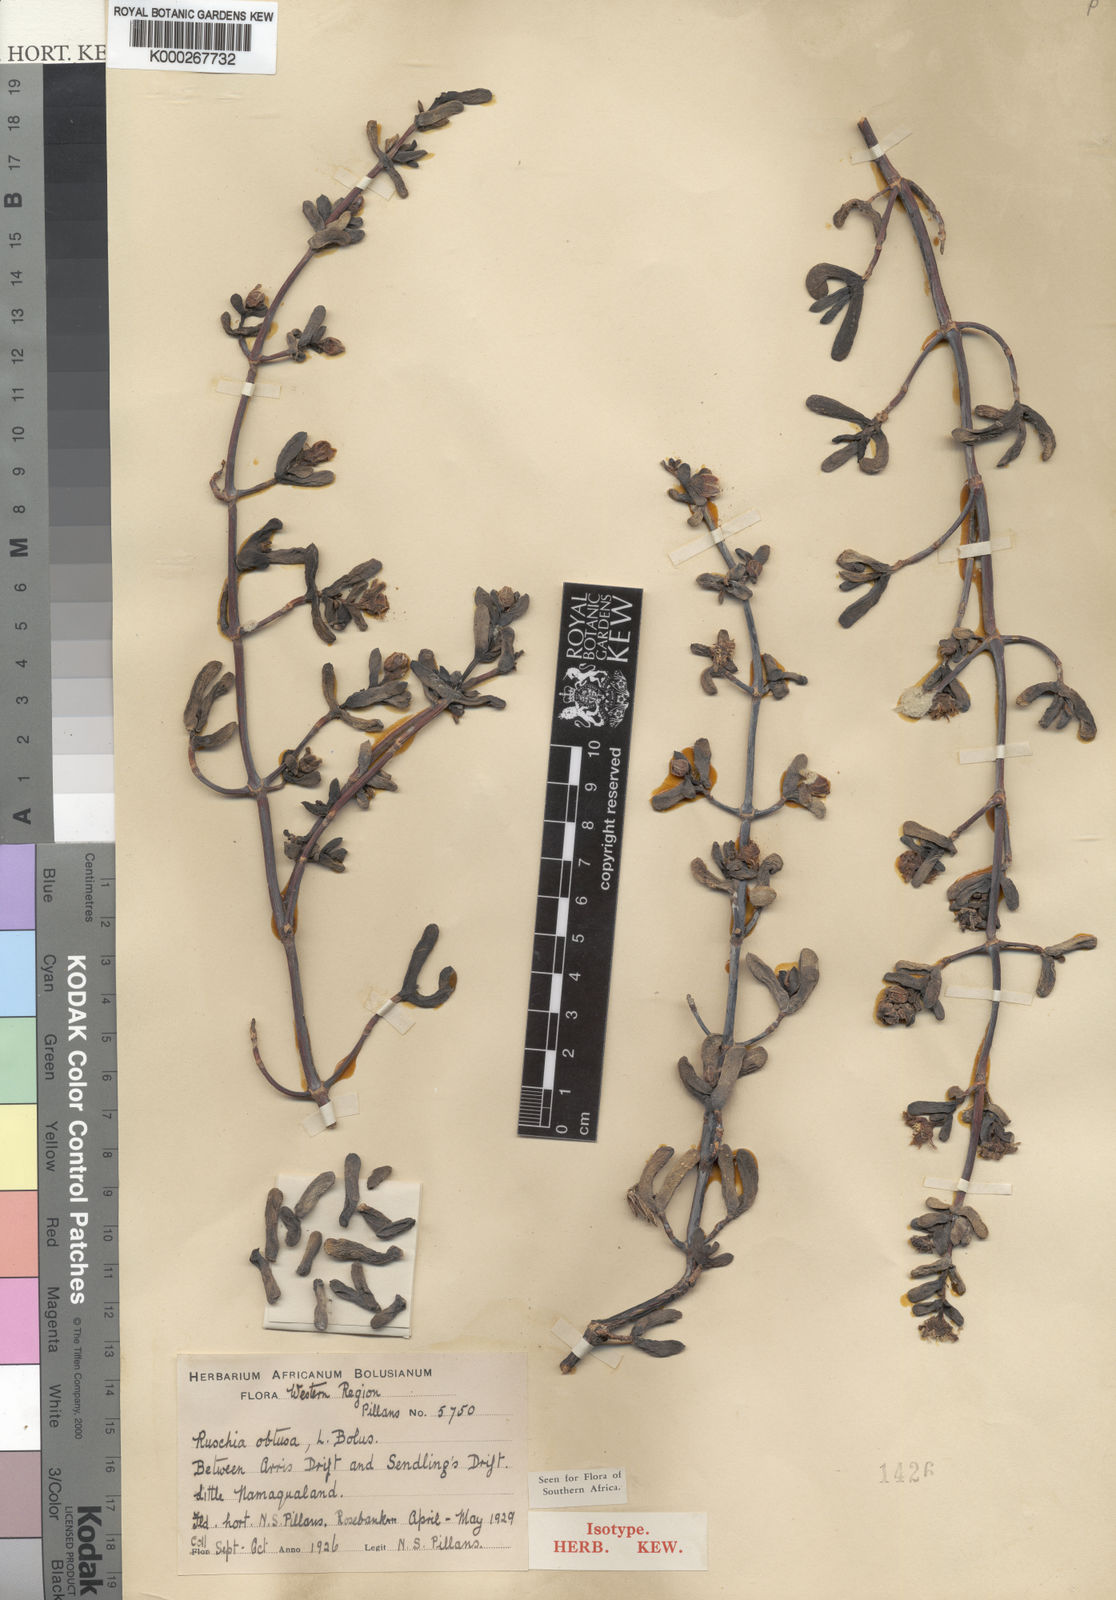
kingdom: Plantae
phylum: Tracheophyta
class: Magnoliopsida
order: Caryophyllales
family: Aizoaceae
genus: Ruschia
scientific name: Ruschia
